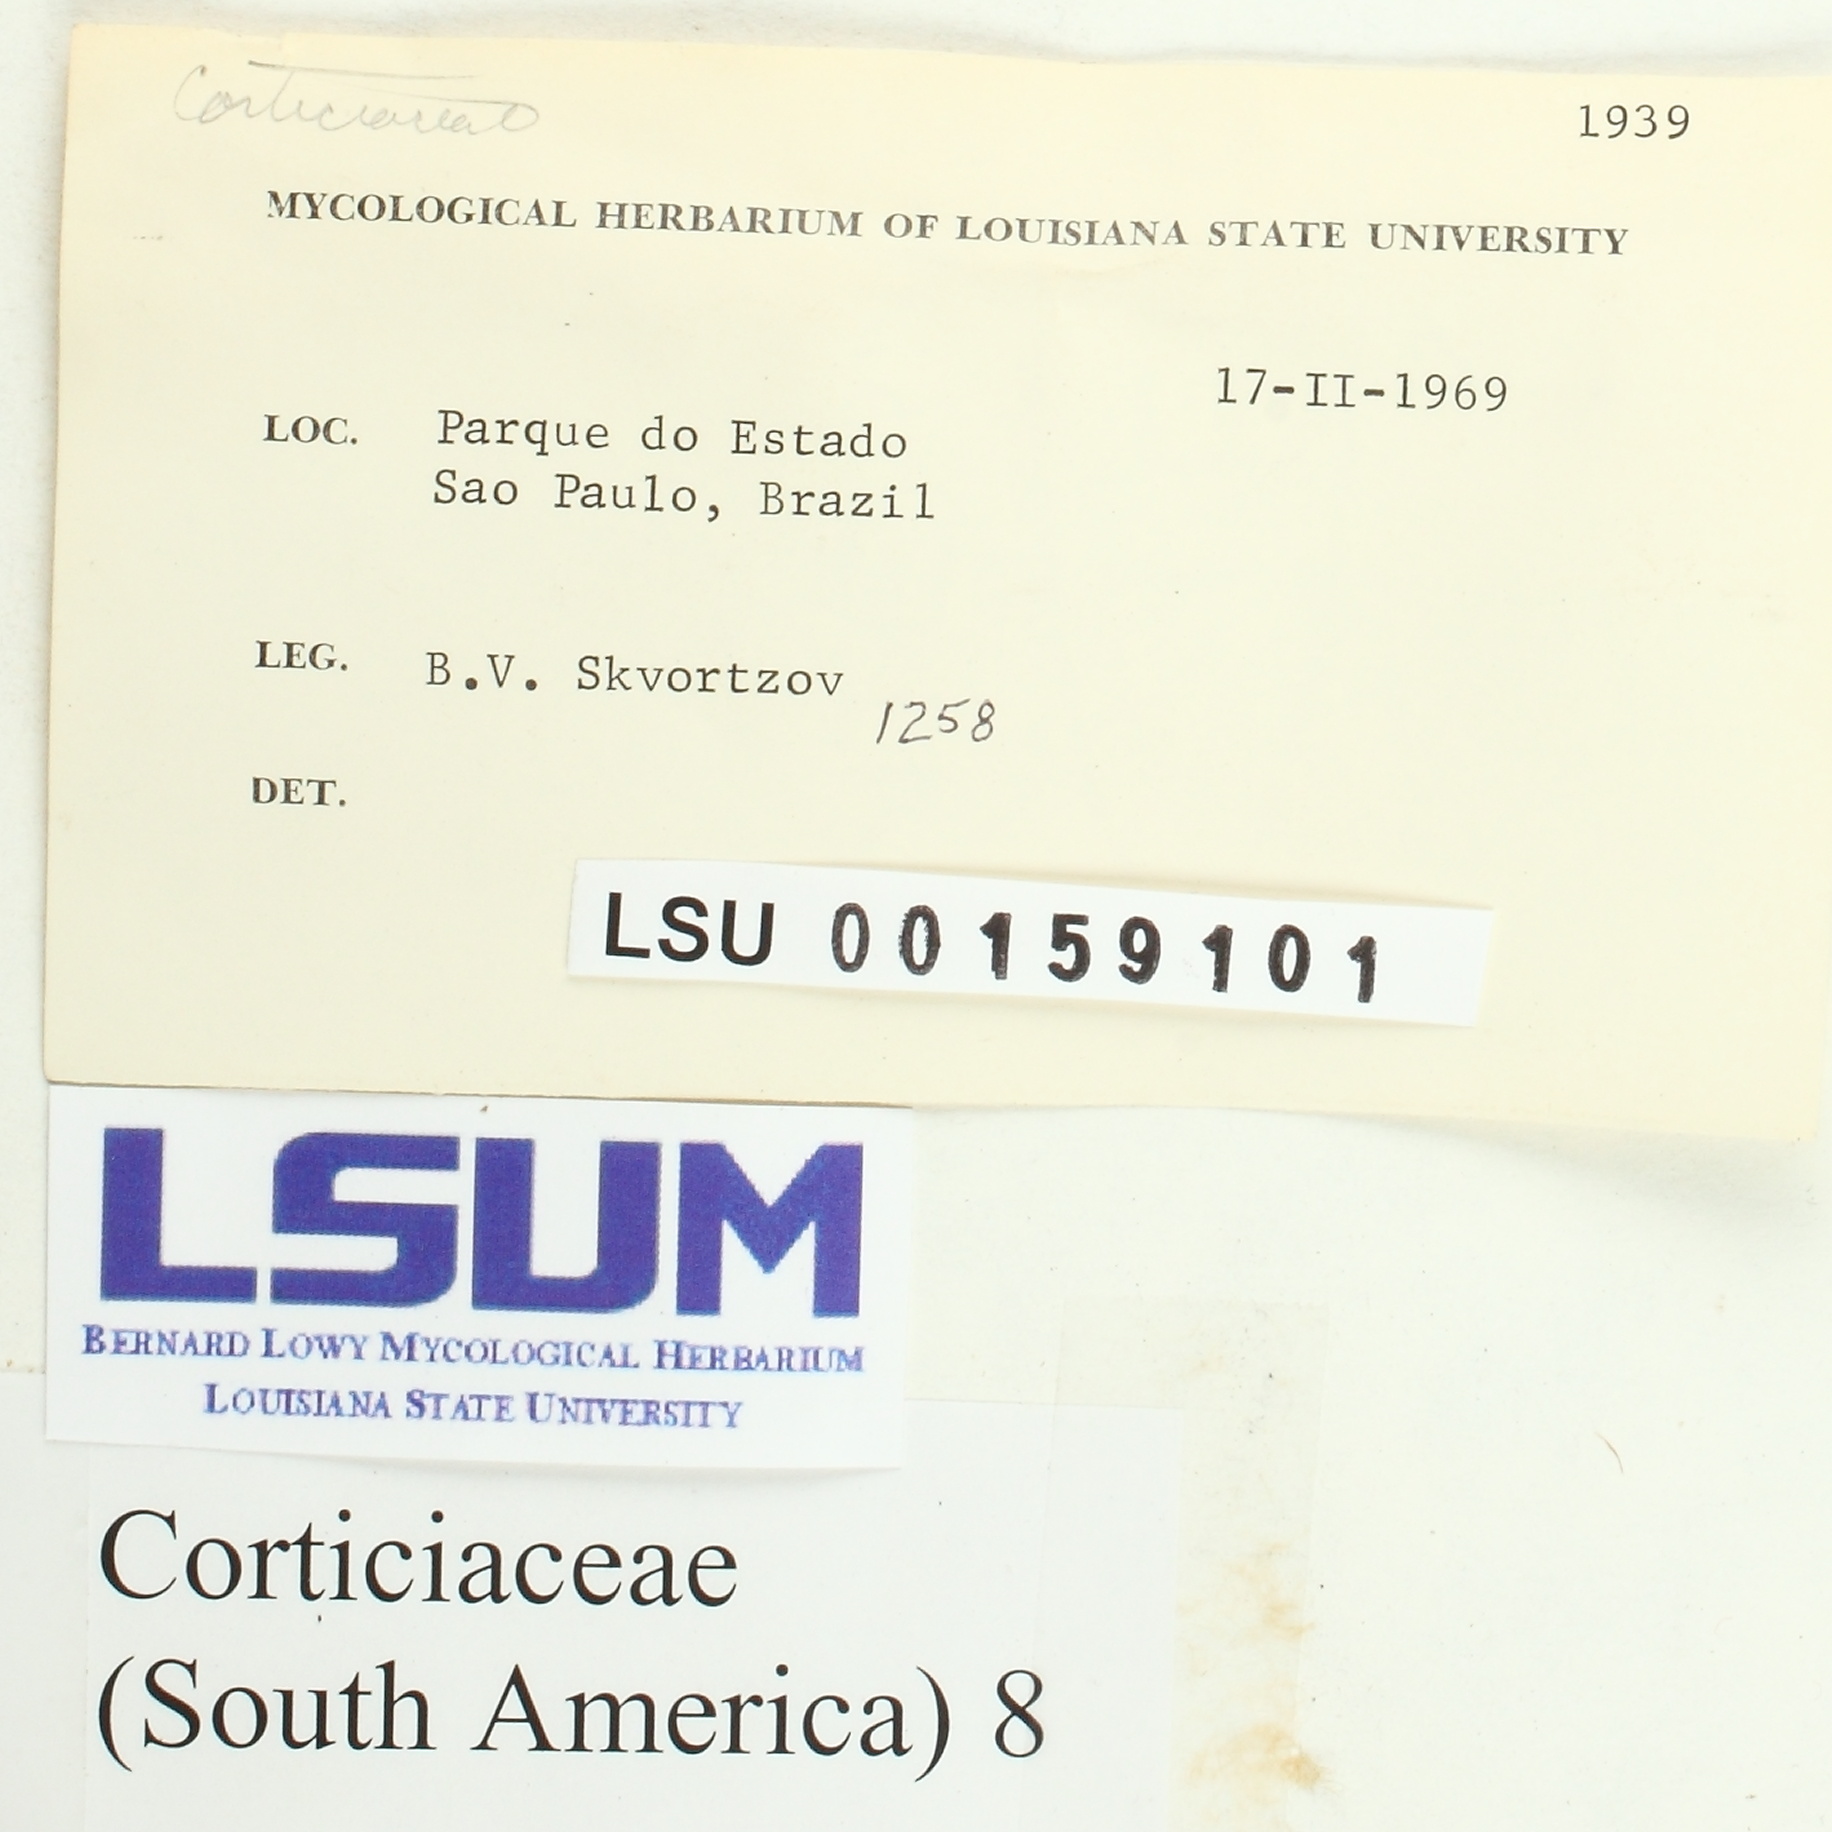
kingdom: Fungi
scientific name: Fungi
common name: Fungi
